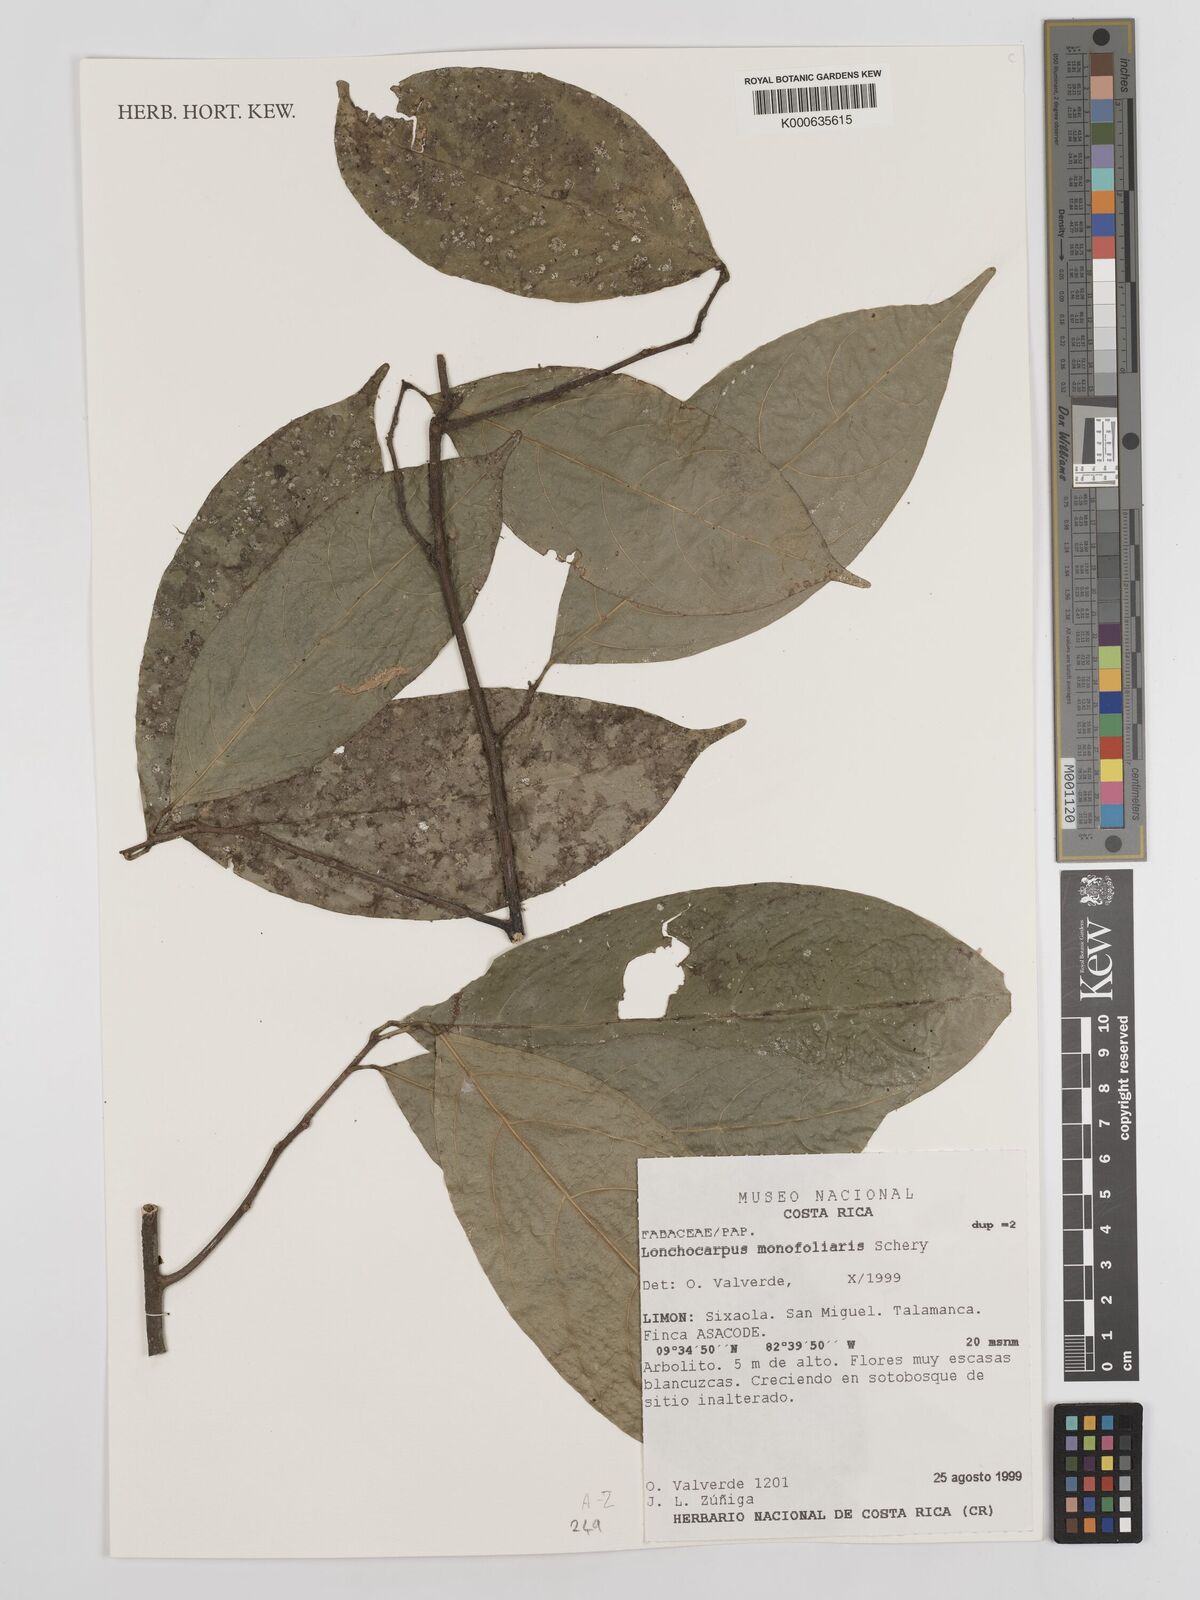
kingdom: Plantae
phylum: Tracheophyta
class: Magnoliopsida
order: Fabales
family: Fabaceae
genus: Lonchocarpus
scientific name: Lonchocarpus monofoliaris
